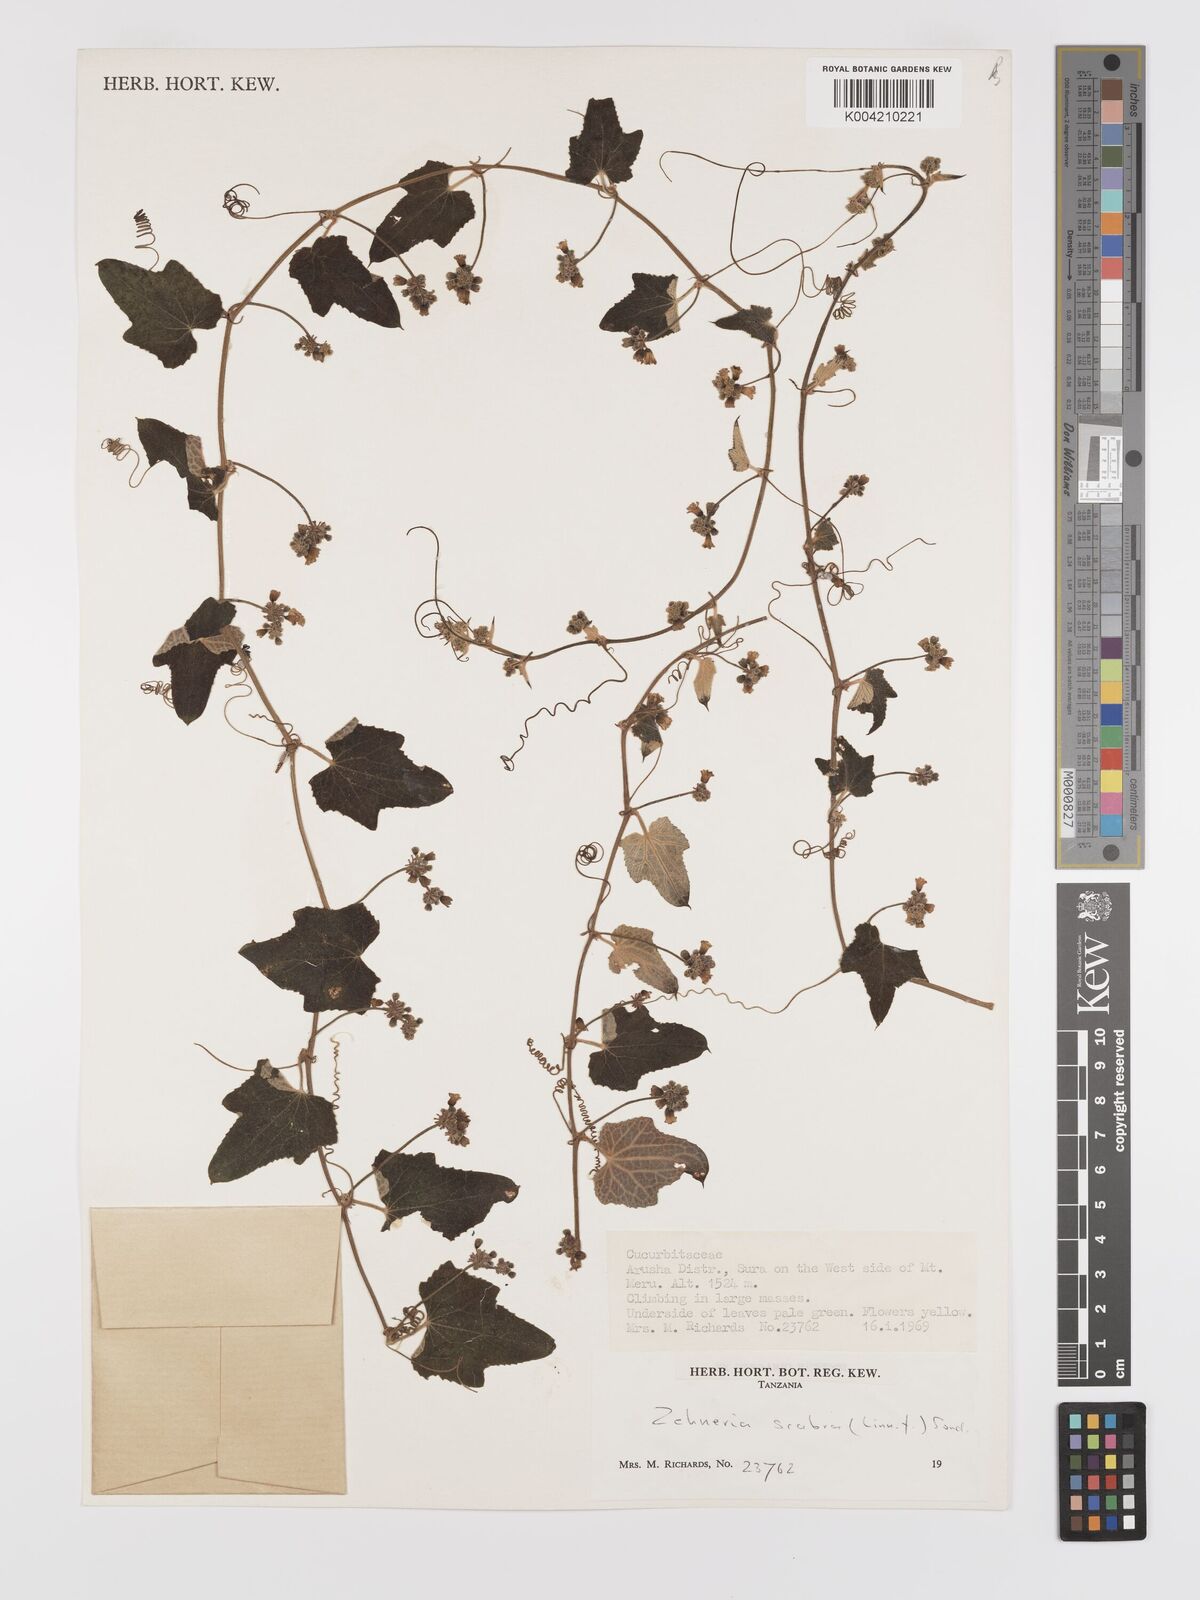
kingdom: Plantae
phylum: Tracheophyta
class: Magnoliopsida
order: Cucurbitales
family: Cucurbitaceae
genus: Zehneria
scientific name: Zehneria scabra
